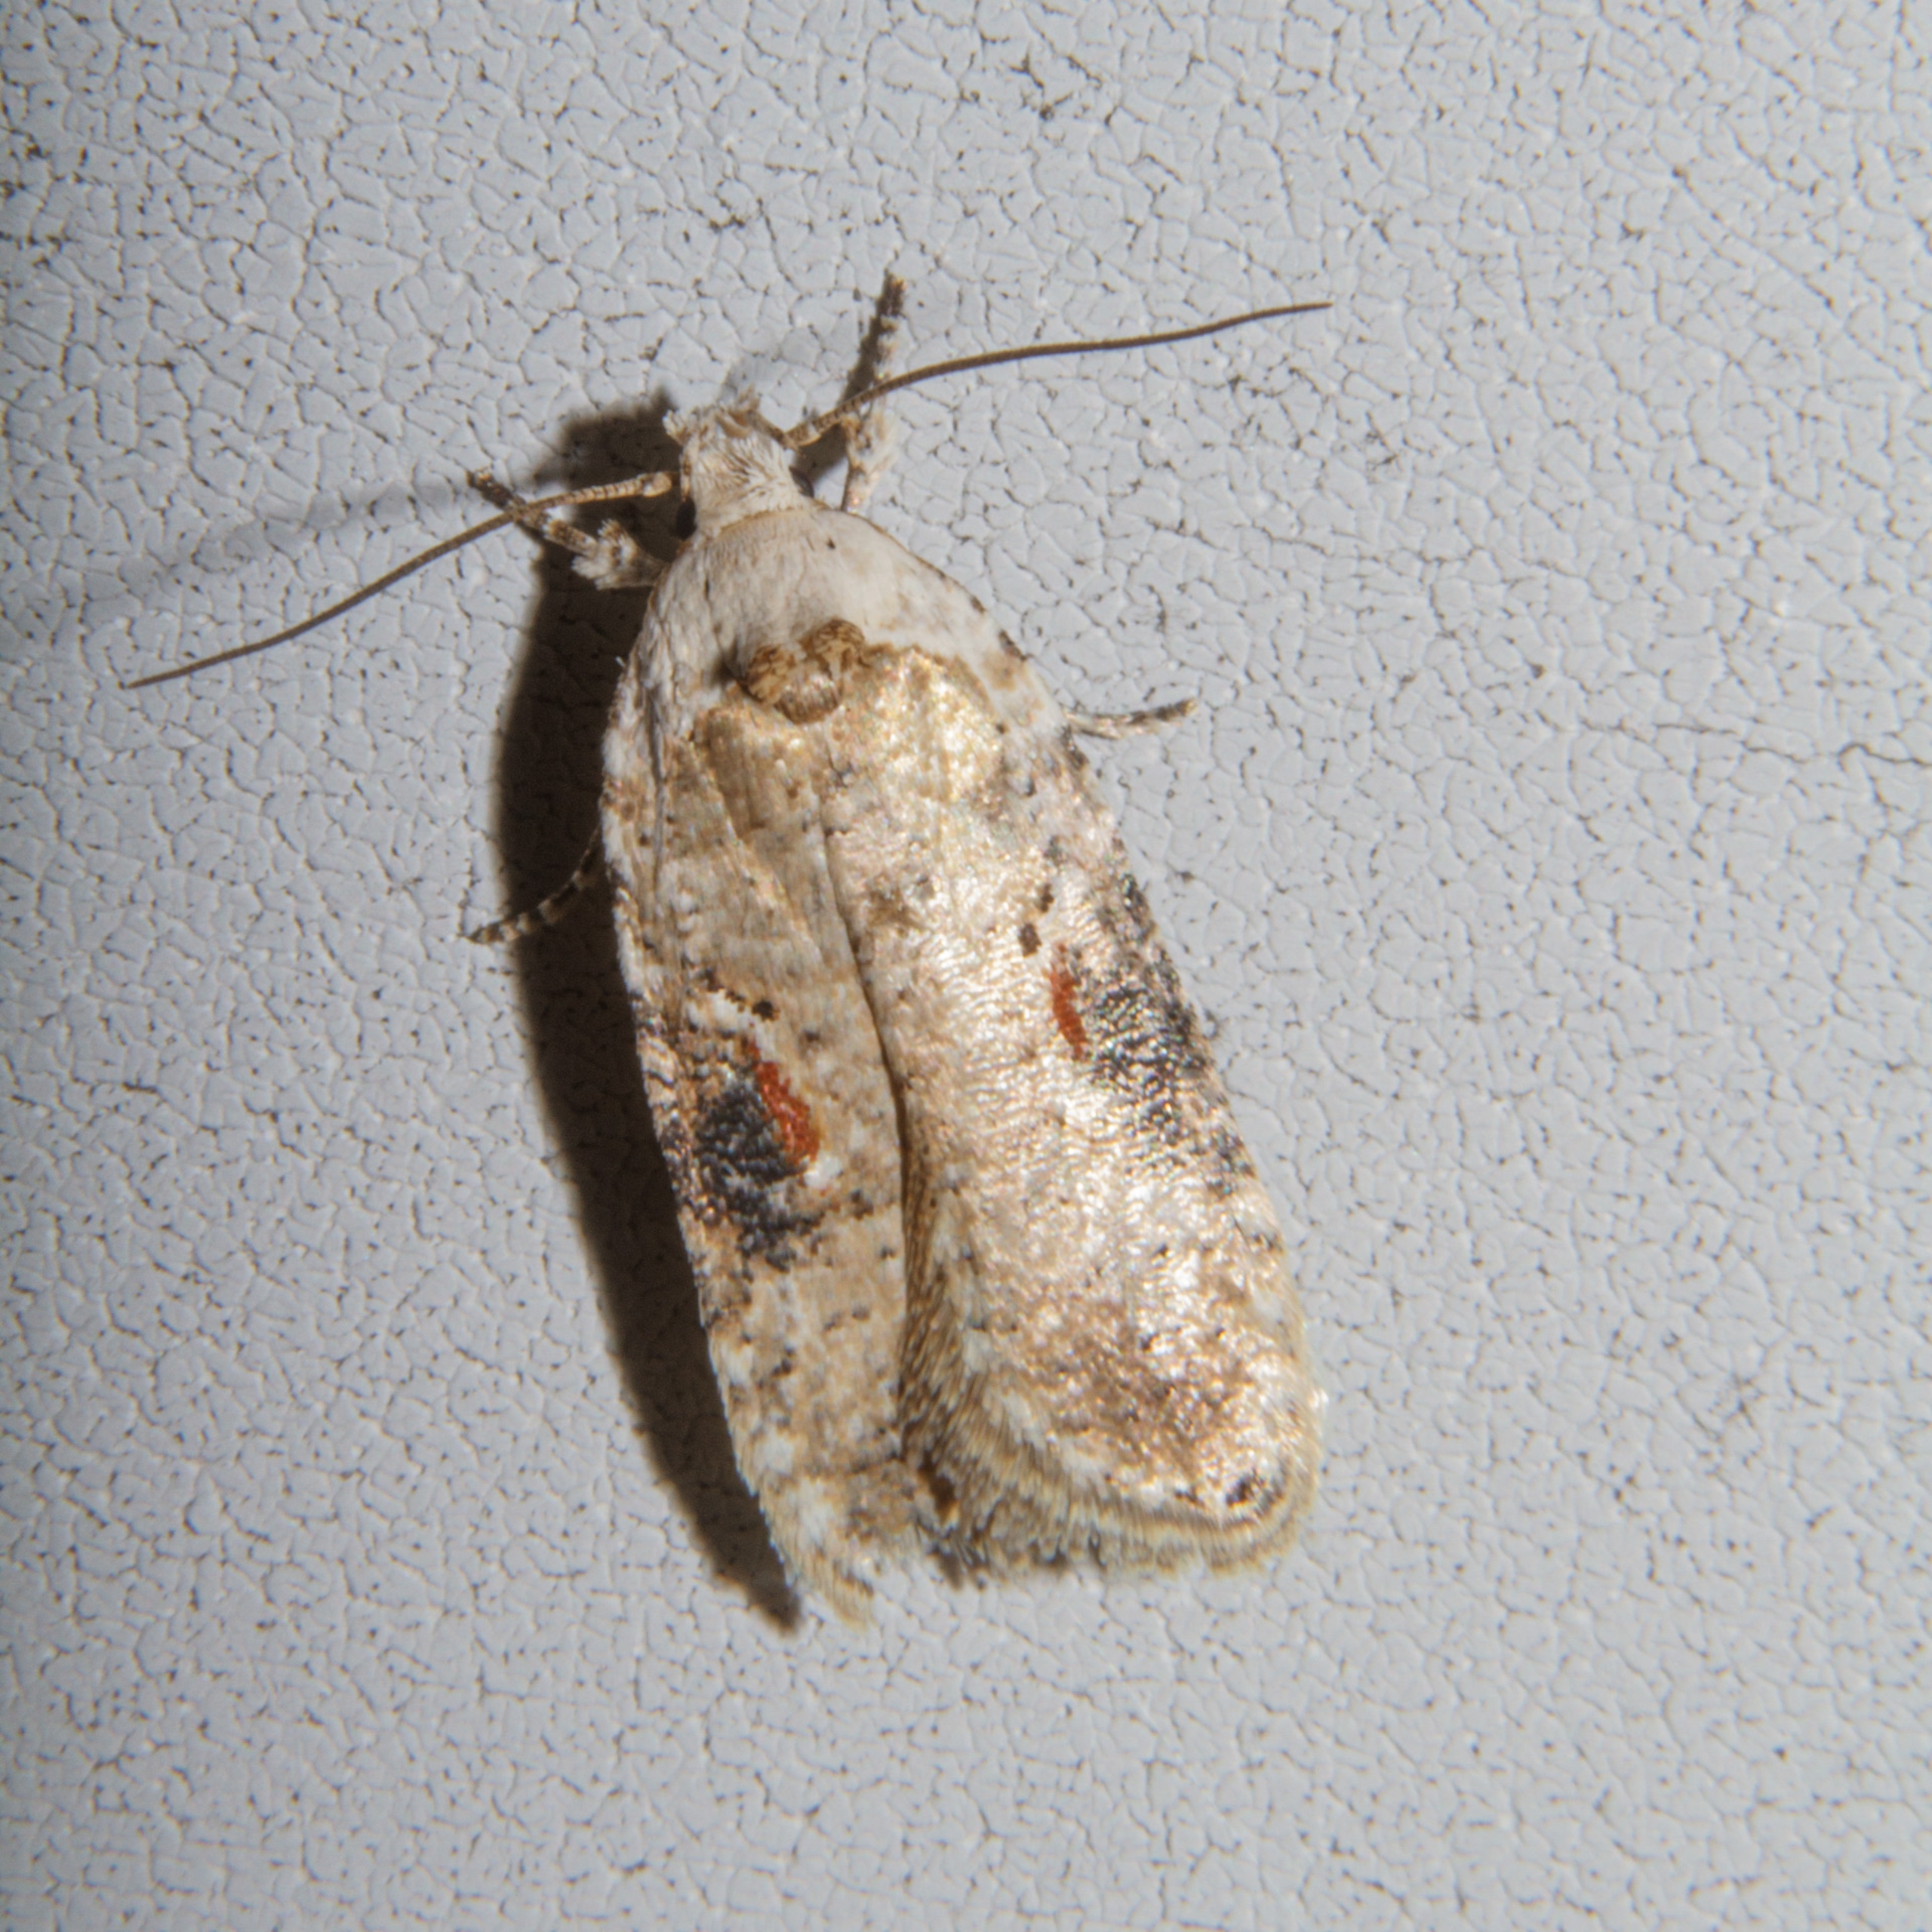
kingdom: Animalia
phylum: Arthropoda
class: Insecta
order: Lepidoptera
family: Depressariidae
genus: Agonopterix
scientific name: Agonopterix alstromeriana
